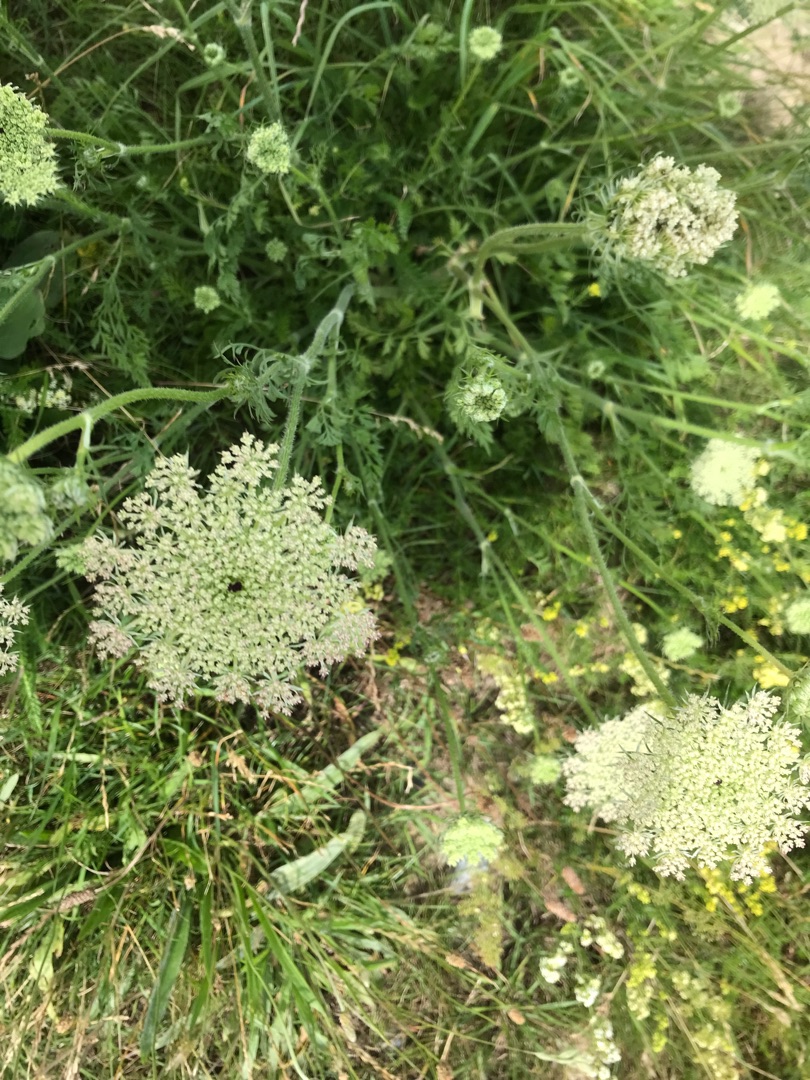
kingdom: Plantae
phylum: Tracheophyta
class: Magnoliopsida
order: Apiales
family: Apiaceae
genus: Daucus
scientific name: Daucus carota
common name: Gulerod
